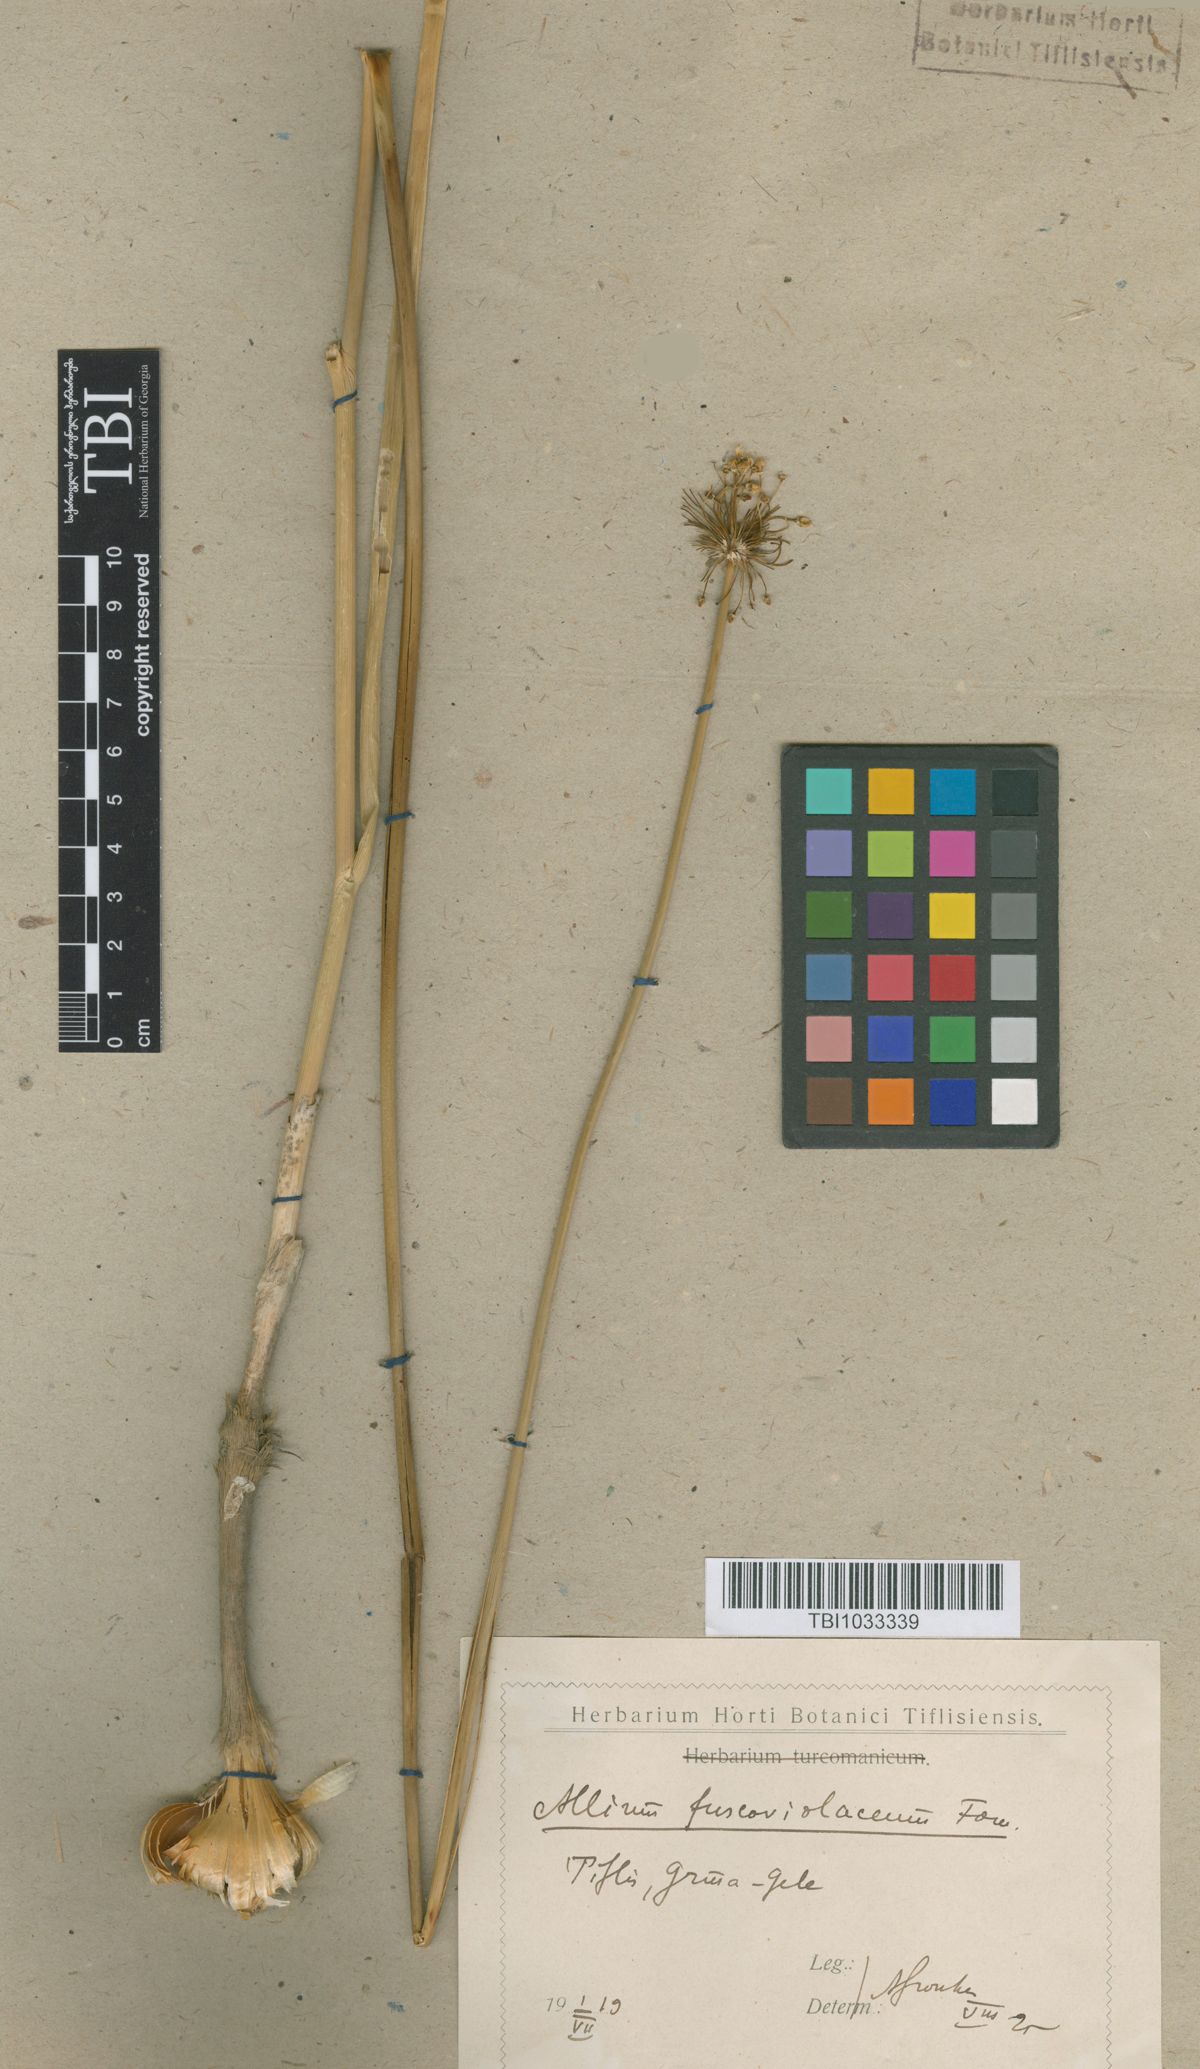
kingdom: Plantae
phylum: Tracheophyta
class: Liliopsida
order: Asparagales
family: Amaryllidaceae
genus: Allium
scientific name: Allium fuscoviolaceum
